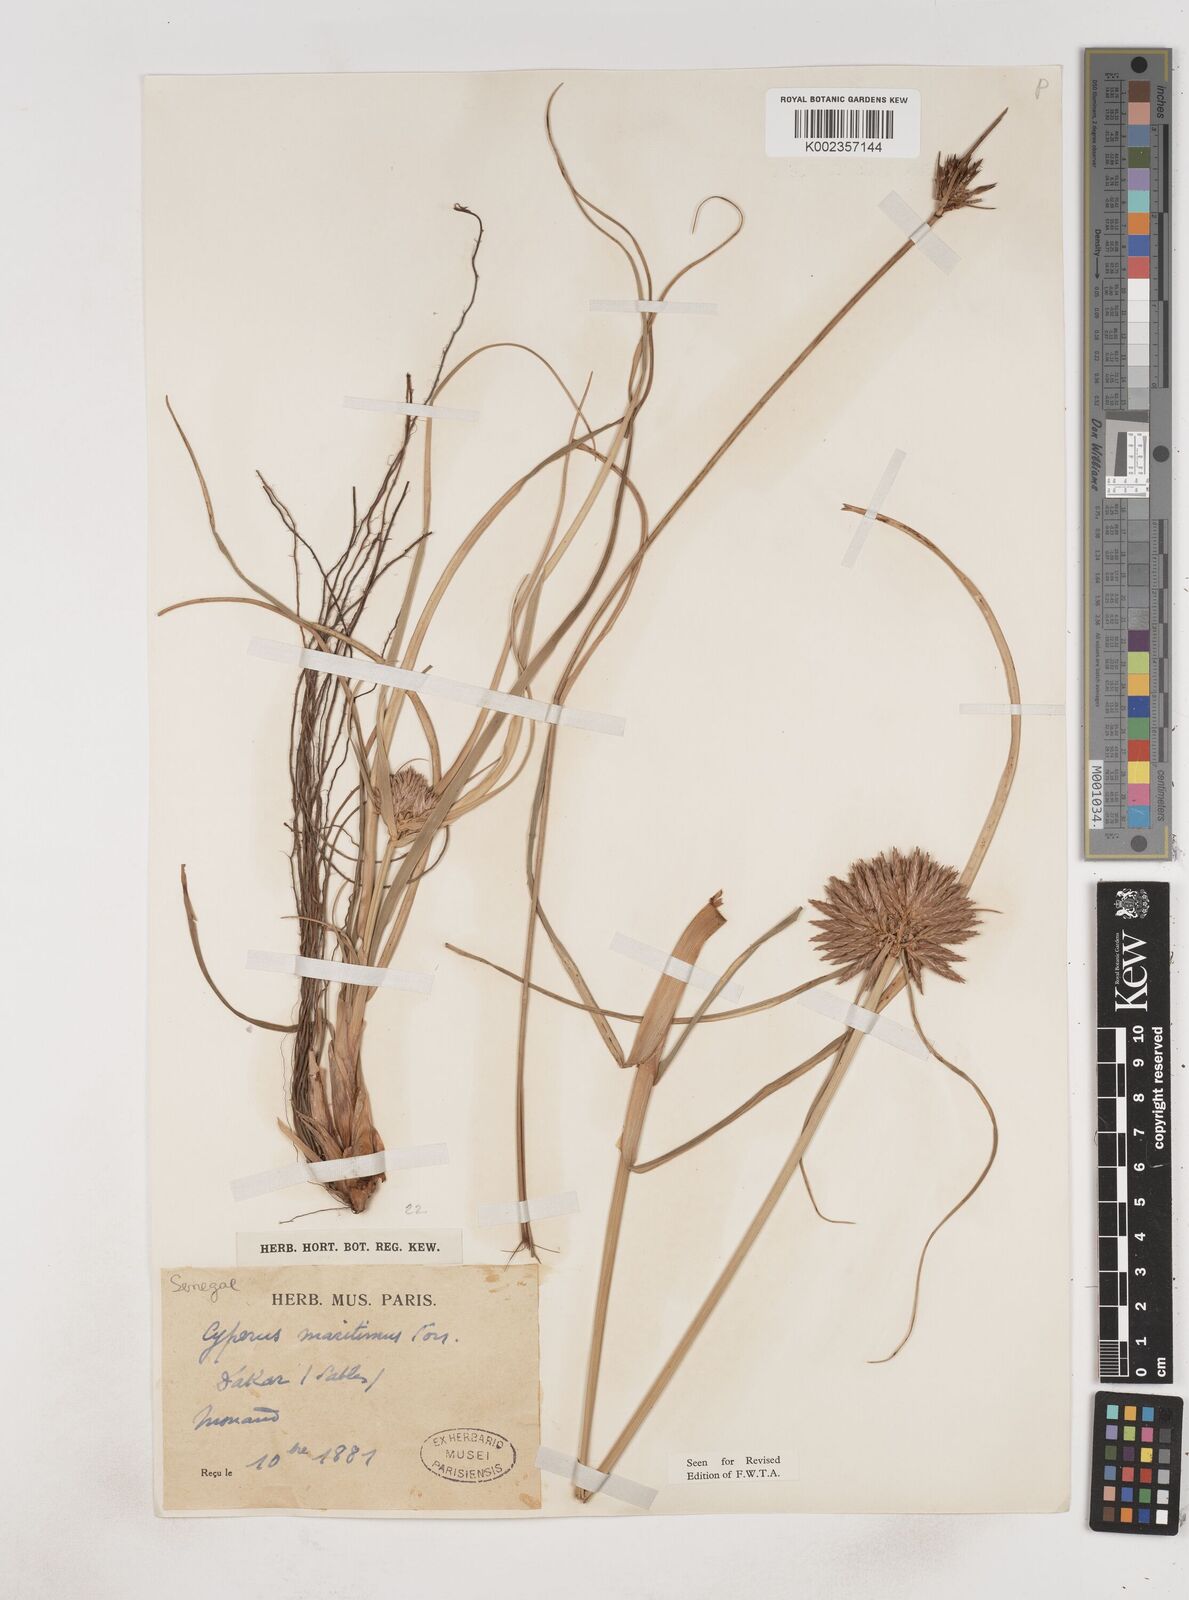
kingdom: Plantae
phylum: Tracheophyta
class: Liliopsida
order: Poales
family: Cyperaceae
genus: Cyperus
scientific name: Cyperus crassipes
